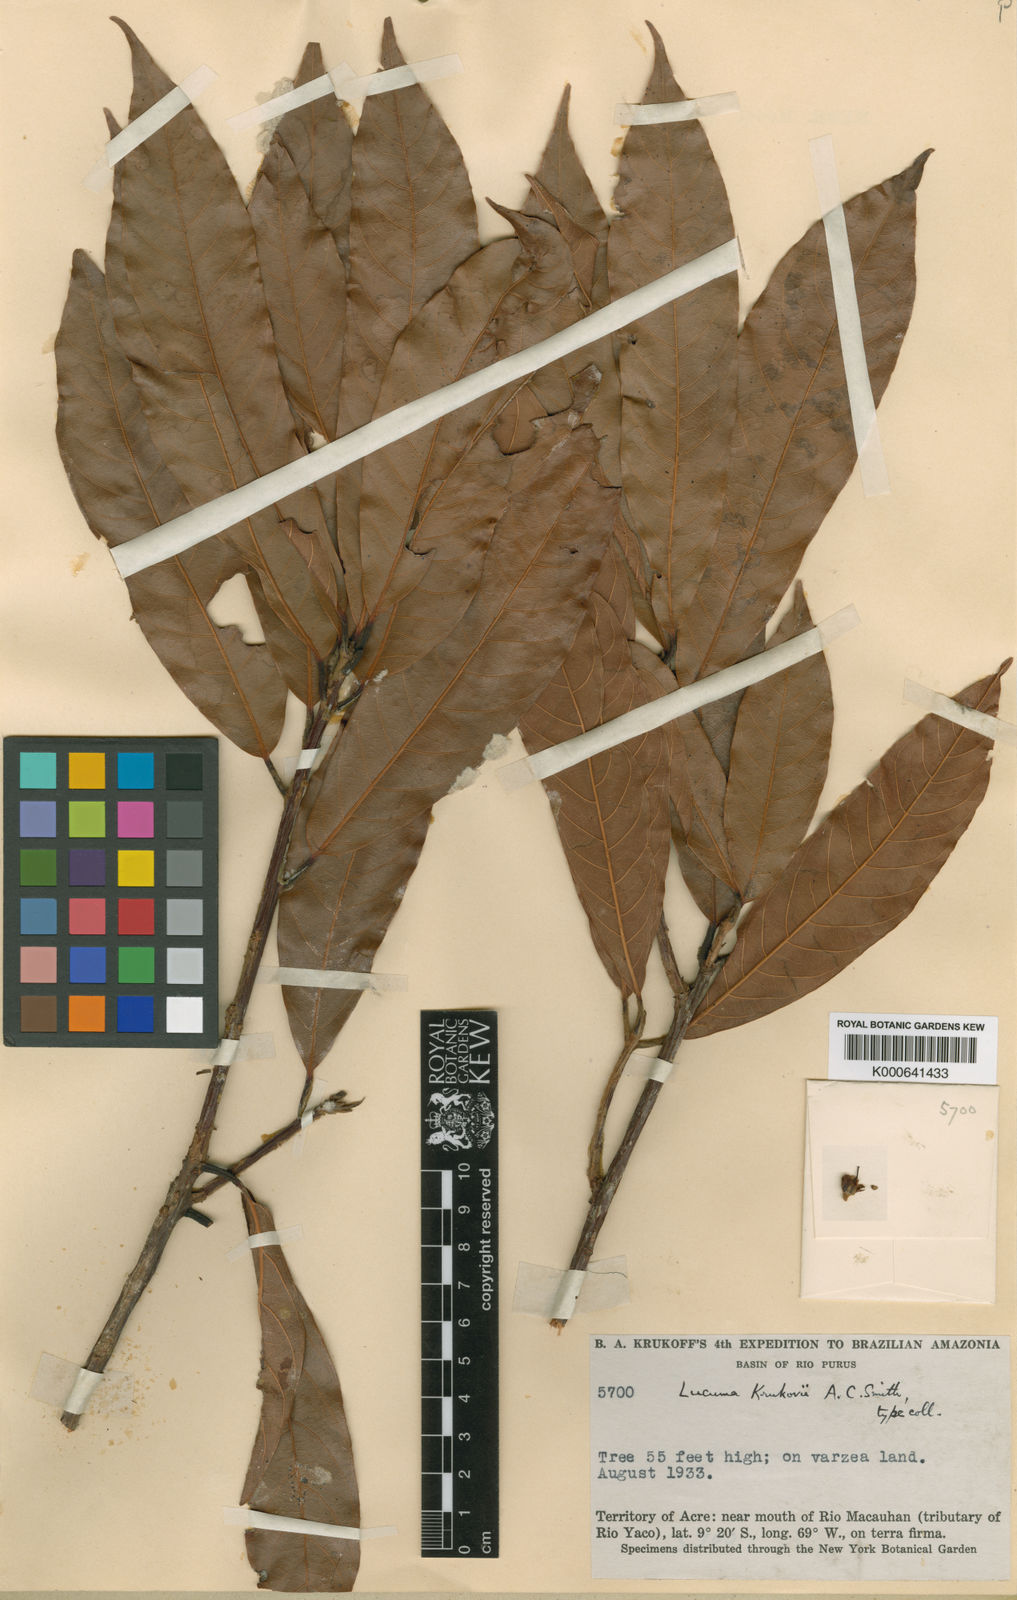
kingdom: Plantae
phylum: Tracheophyta
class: Magnoliopsida
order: Ericales
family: Sapotaceae
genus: Pouteria
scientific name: Pouteria krukovii
